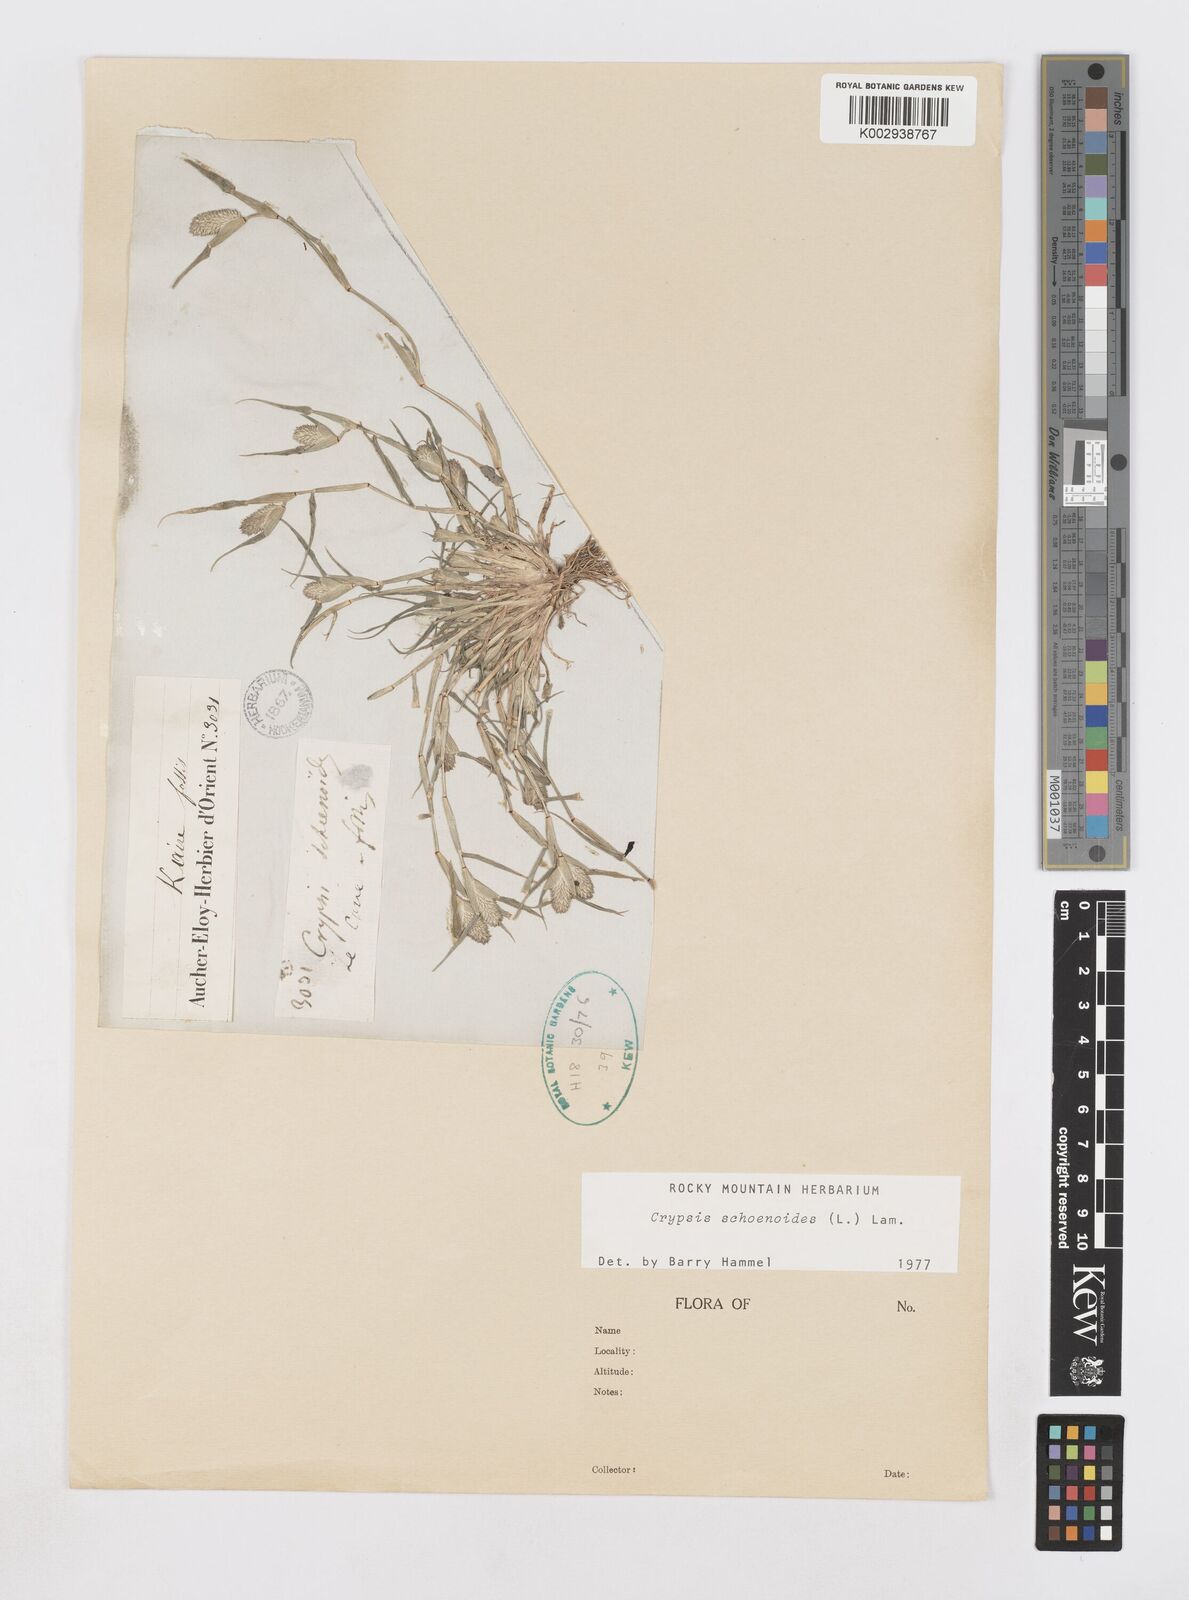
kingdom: Plantae
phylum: Tracheophyta
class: Liliopsida
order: Poales
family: Poaceae
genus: Sporobolus
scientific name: Sporobolus schoenoides
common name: Rush-like timothy
